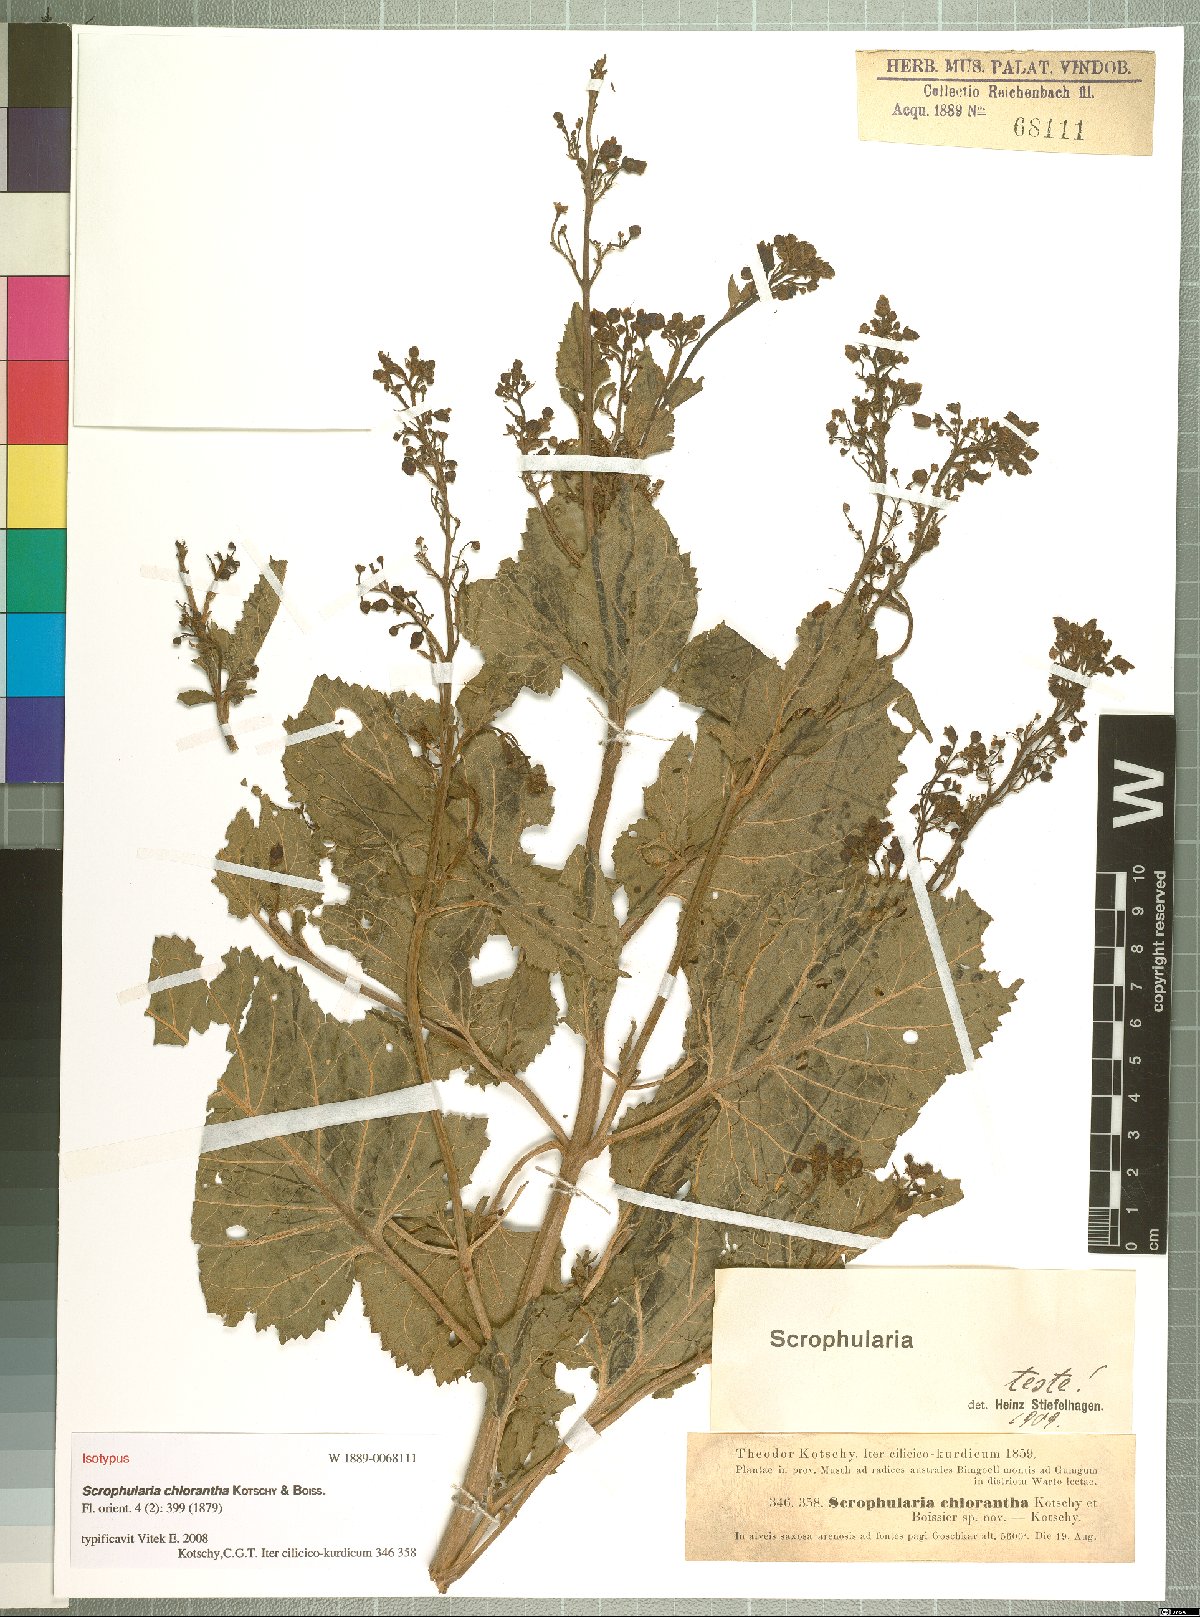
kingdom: Plantae
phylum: Tracheophyta
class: Magnoliopsida
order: Lamiales
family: Scrophulariaceae
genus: Scrophularia
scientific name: Scrophularia chlorantha
